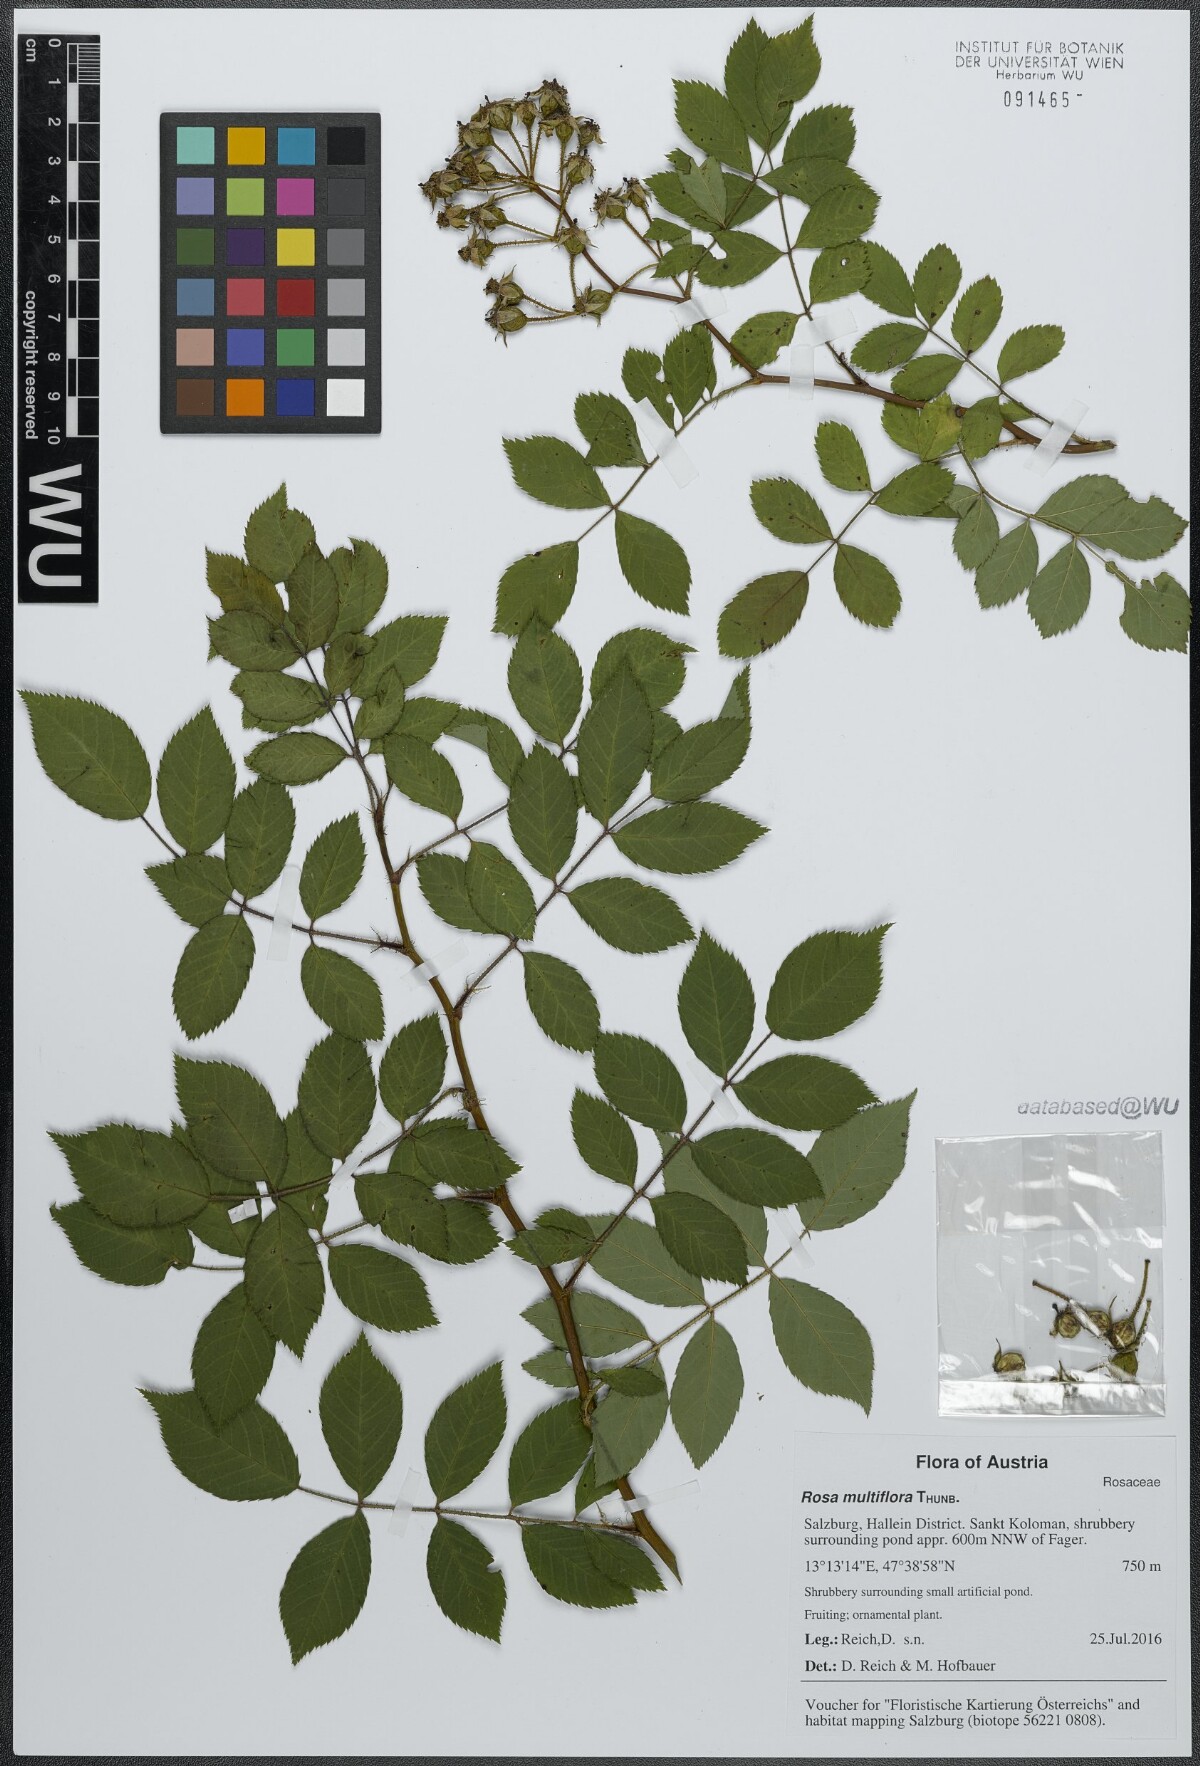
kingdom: Plantae
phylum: Tracheophyta
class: Magnoliopsida
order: Rosales
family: Rosaceae
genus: Rosa
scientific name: Rosa multiflora
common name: Multiflora rose
